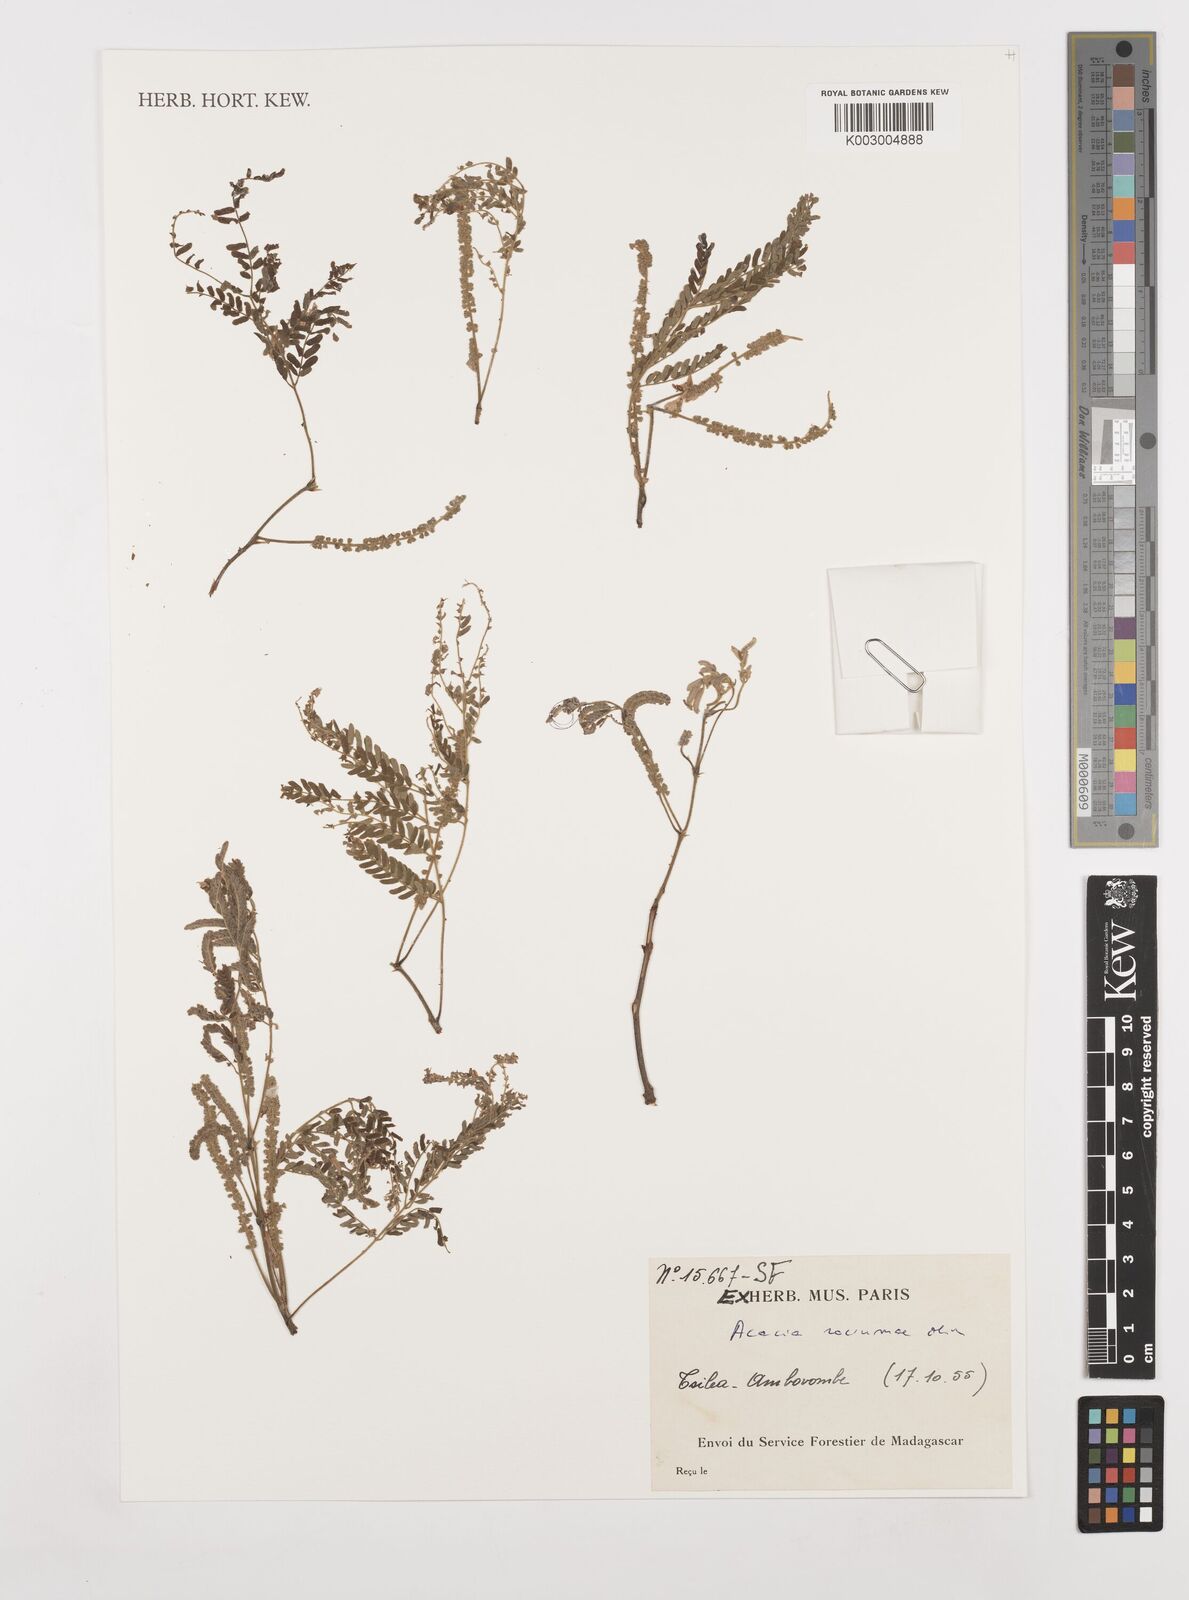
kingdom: Plantae
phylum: Tracheophyta
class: Magnoliopsida
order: Fabales
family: Fabaceae
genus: Senegalia
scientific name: Senegalia rovumae
